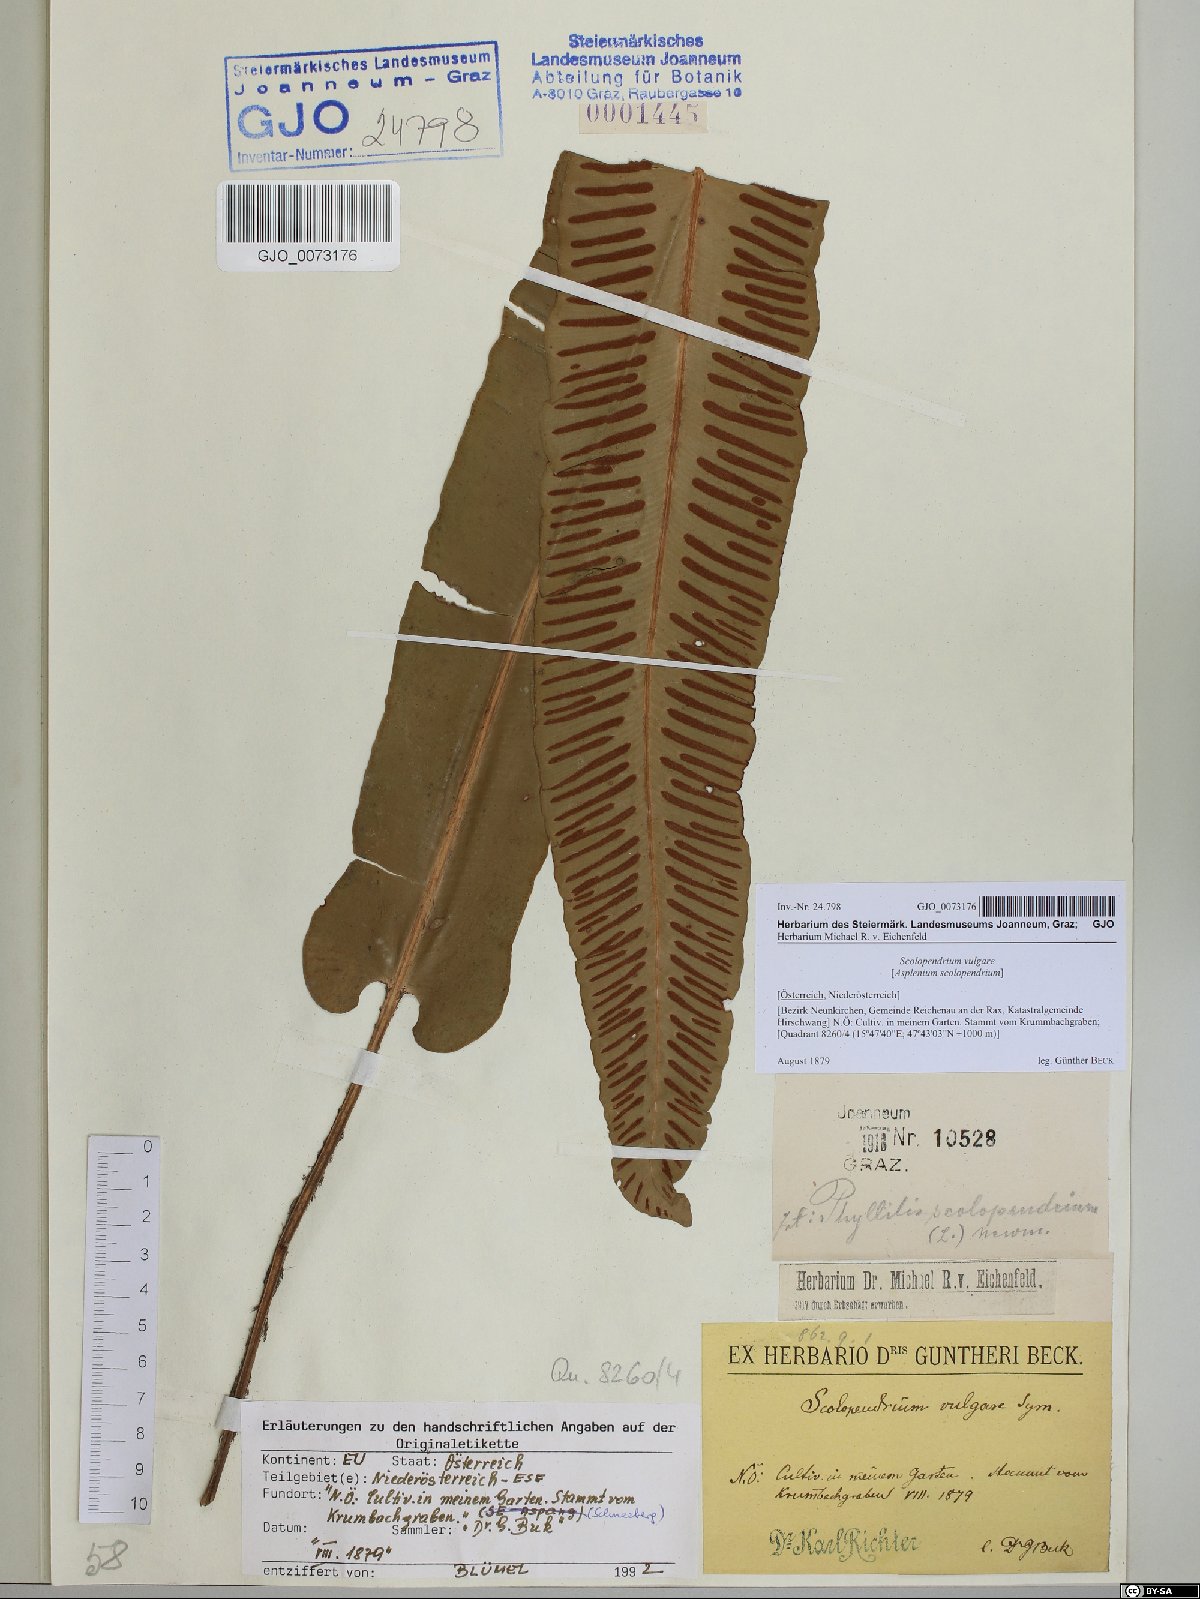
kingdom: Plantae
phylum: Tracheophyta
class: Polypodiopsida
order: Polypodiales
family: Aspleniaceae
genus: Asplenium
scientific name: Asplenium scolopendrium
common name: Hart's-tongue fern
